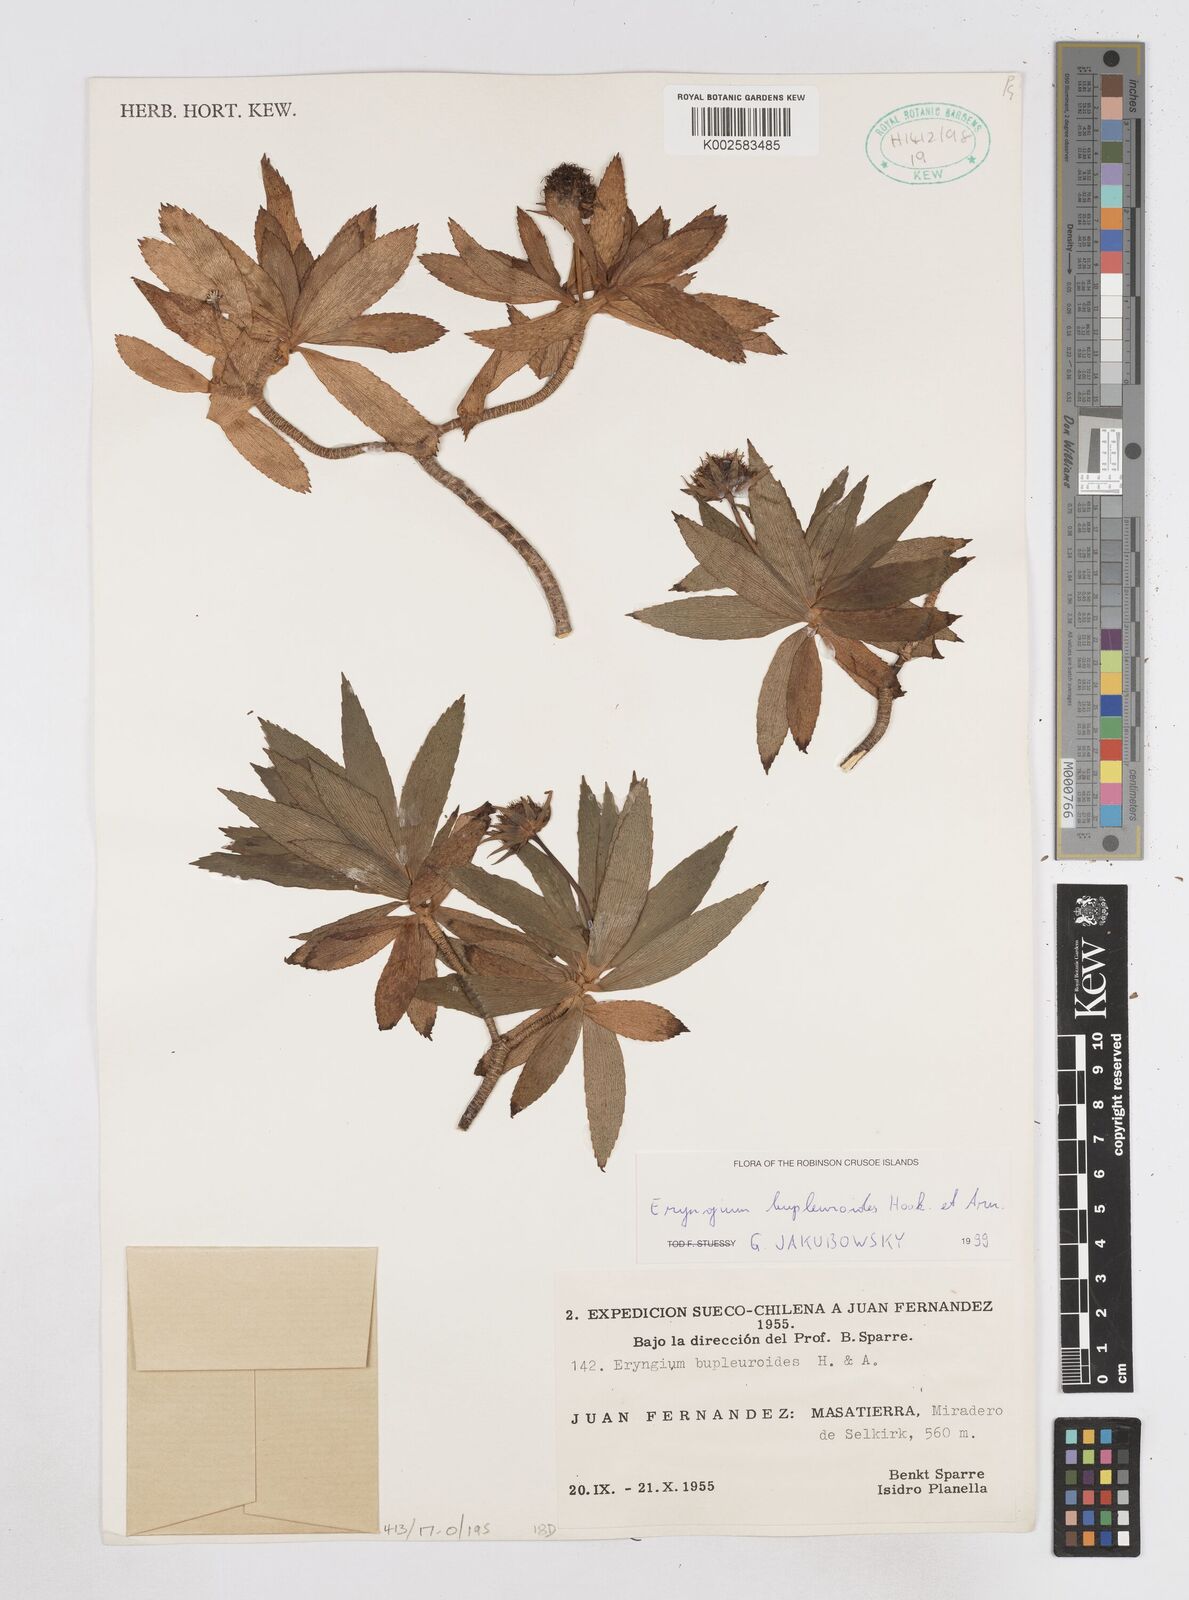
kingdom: Plantae
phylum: Tracheophyta
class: Magnoliopsida
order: Apiales
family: Apiaceae
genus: Eryngium
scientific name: Eryngium bupleuroides
